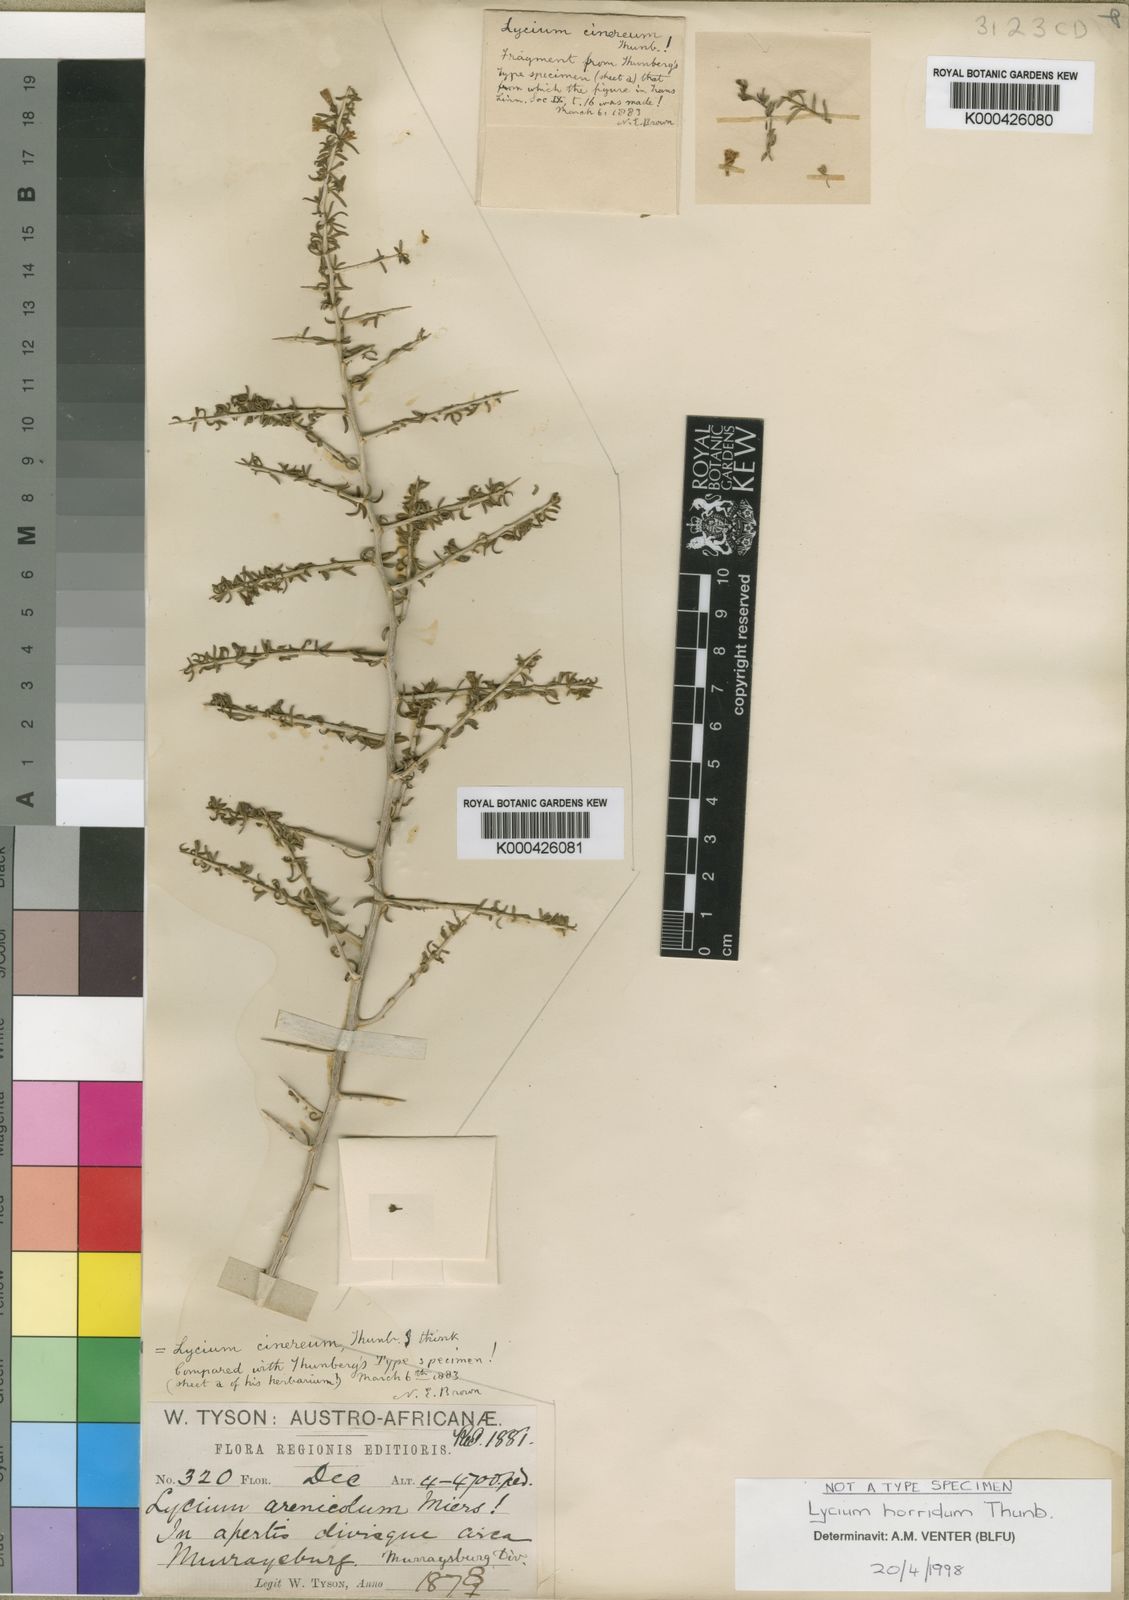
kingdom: Plantae
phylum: Tracheophyta
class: Magnoliopsida
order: Solanales
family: Solanaceae
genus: Lycium
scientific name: Lycium horridum
